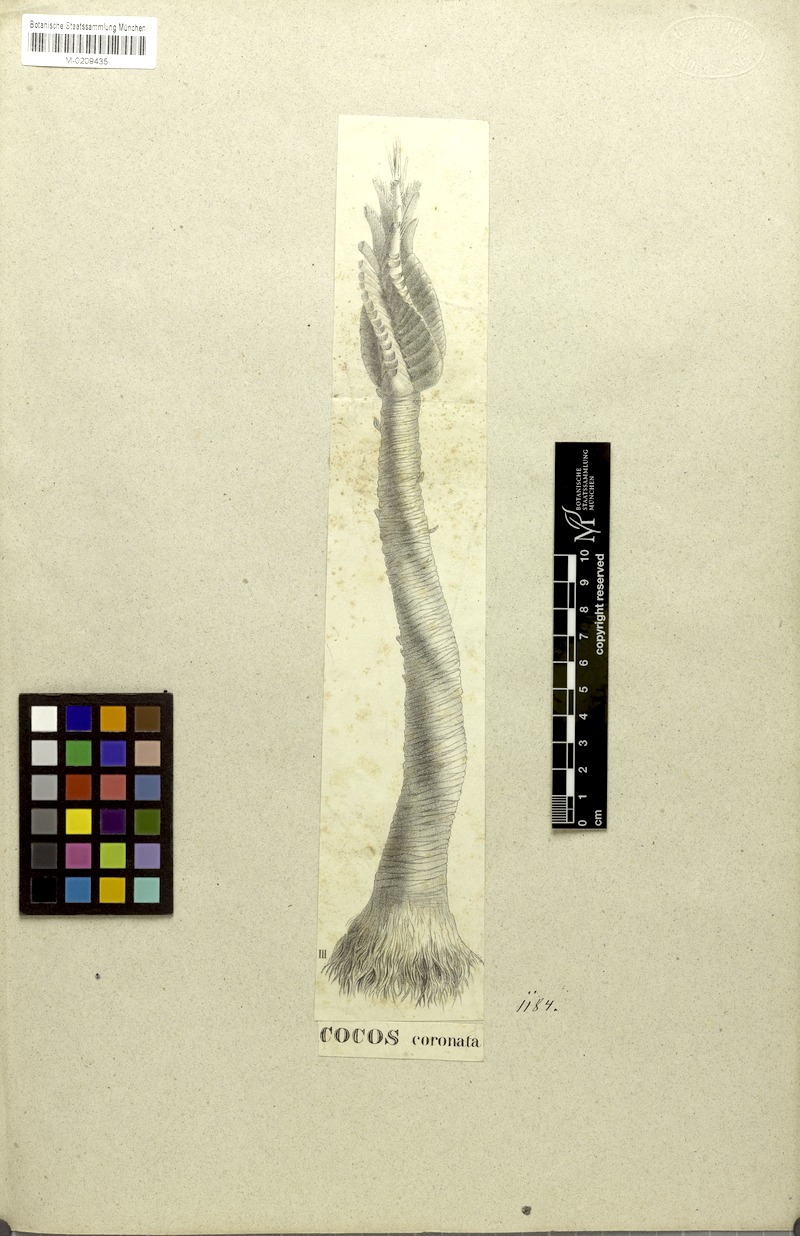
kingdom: Plantae
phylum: Tracheophyta
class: Liliopsida
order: Arecales
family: Arecaceae
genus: Syagrus
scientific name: Syagrus coronata
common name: Licuri palm
